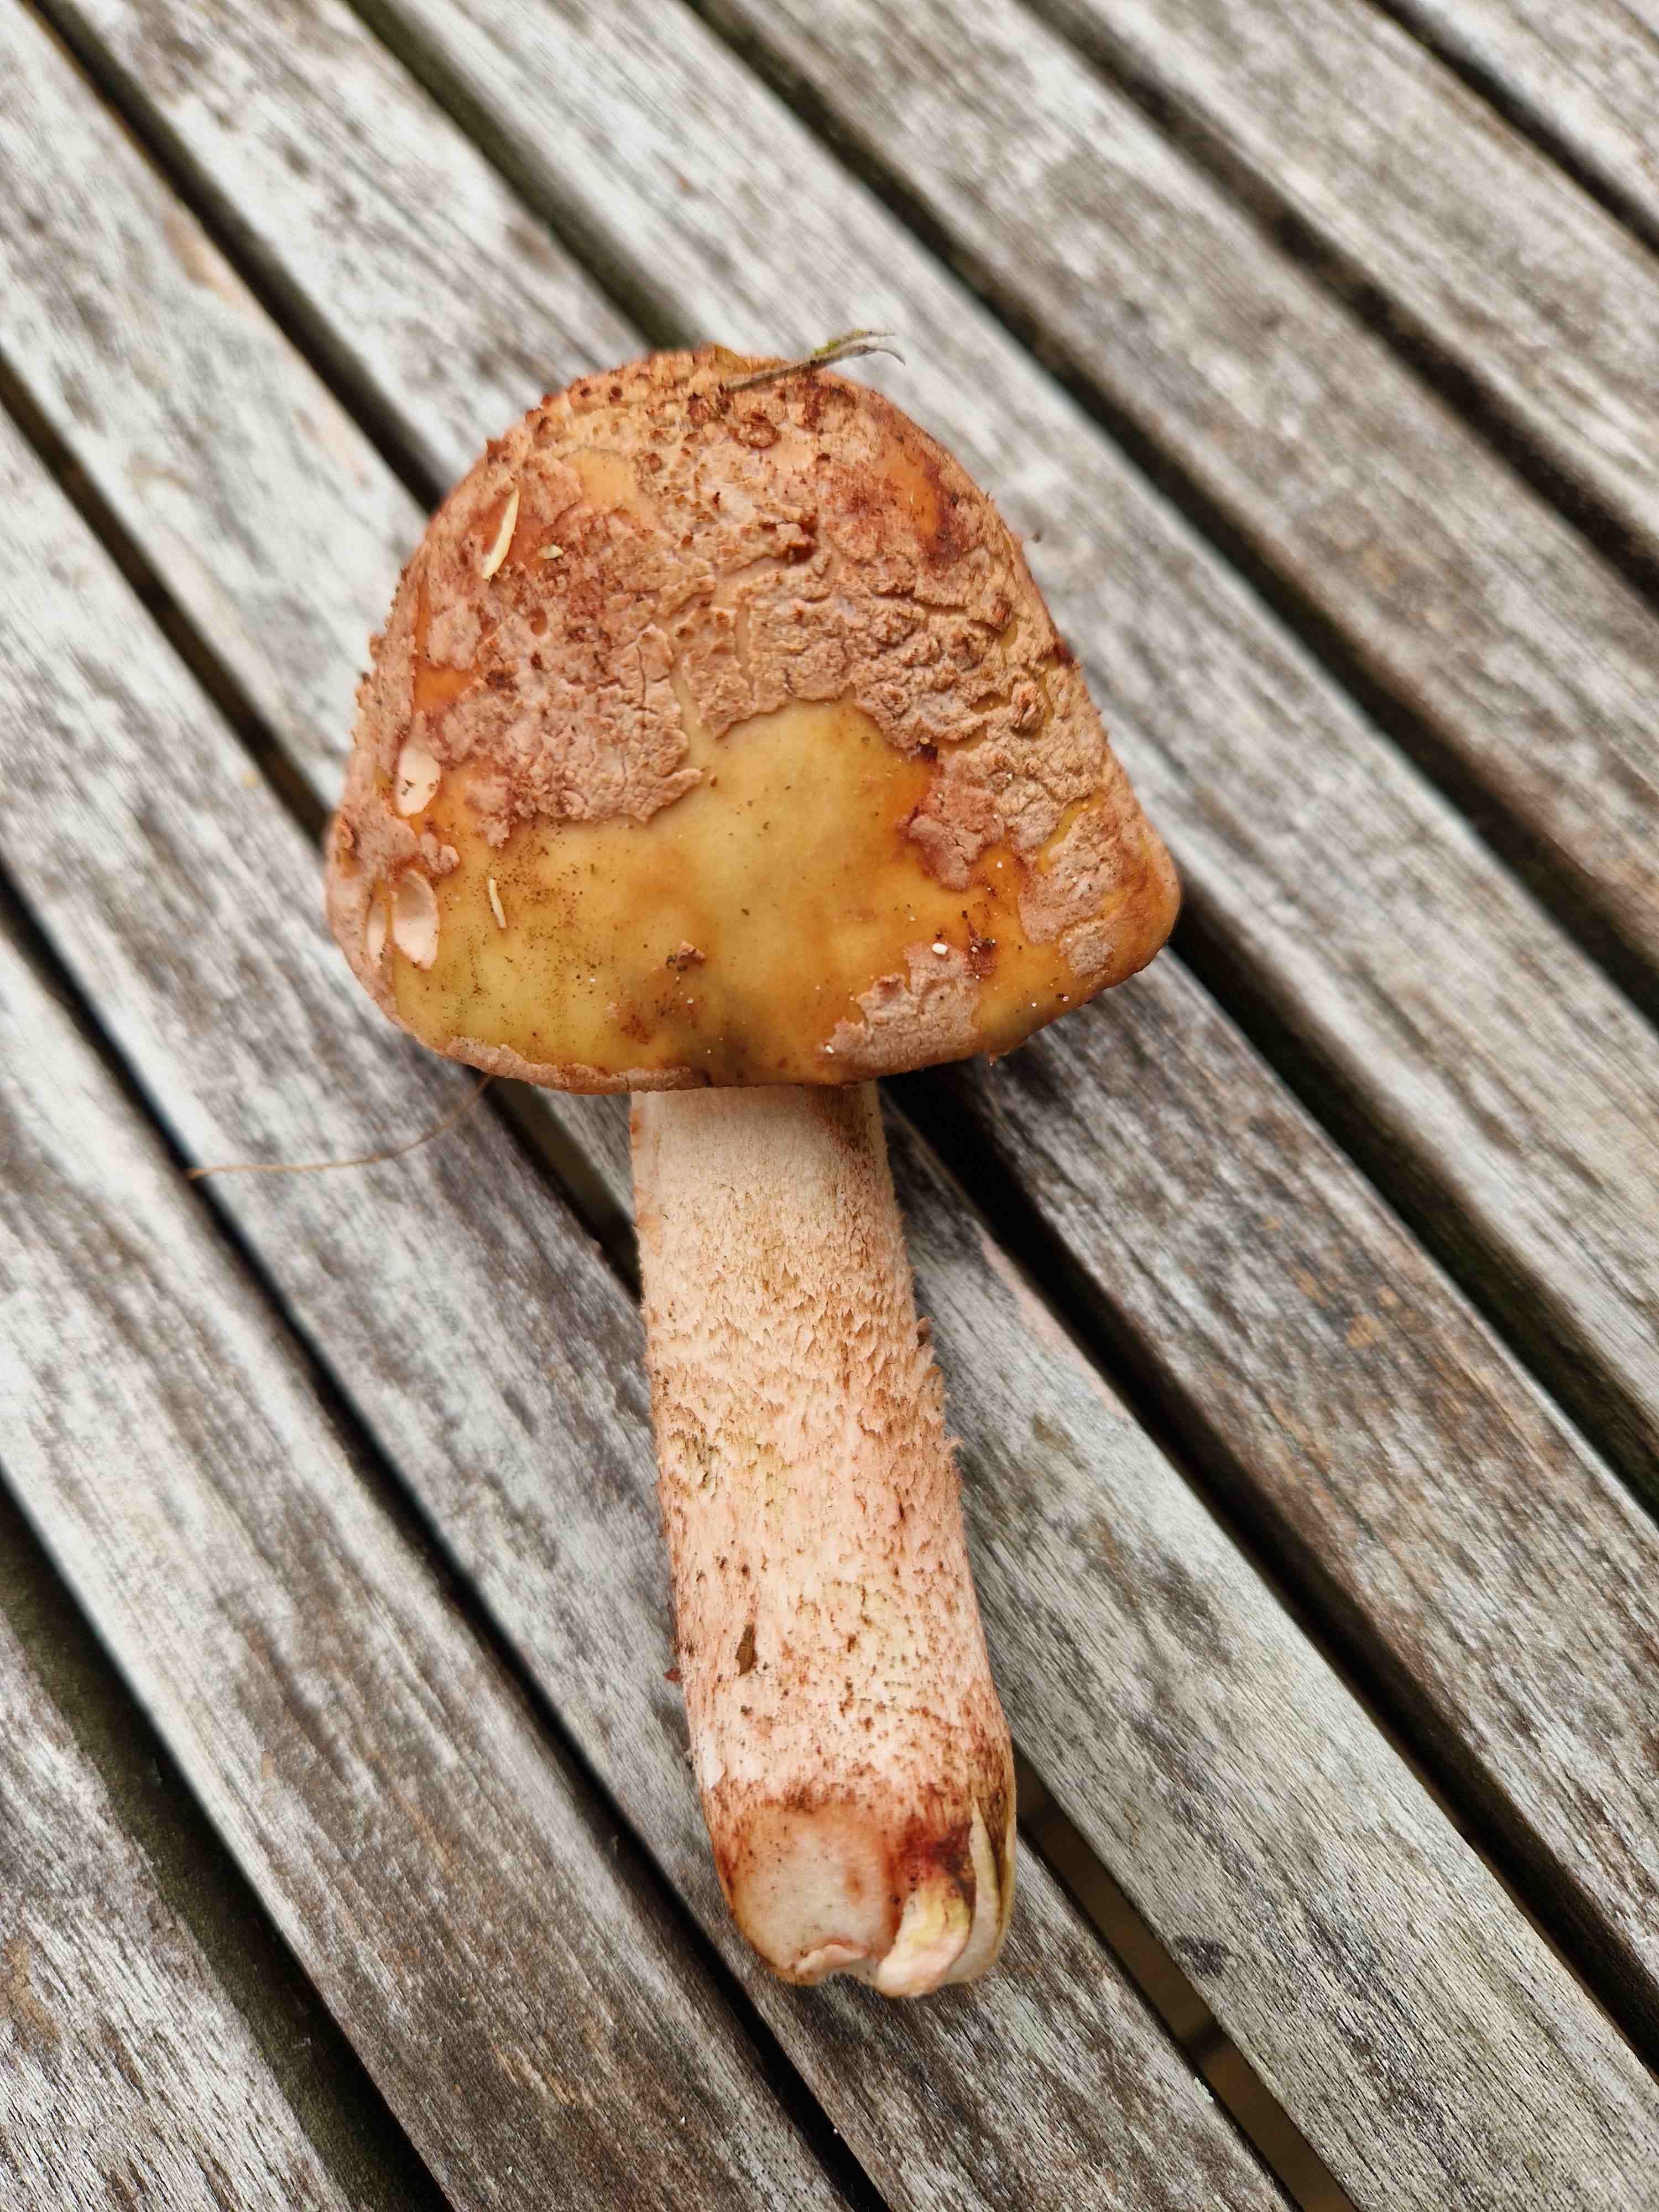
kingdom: Fungi
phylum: Basidiomycota
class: Agaricomycetes
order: Agaricales
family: Amanitaceae
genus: Amanita
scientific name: Amanita rubescens
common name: rødmende fluesvamp
